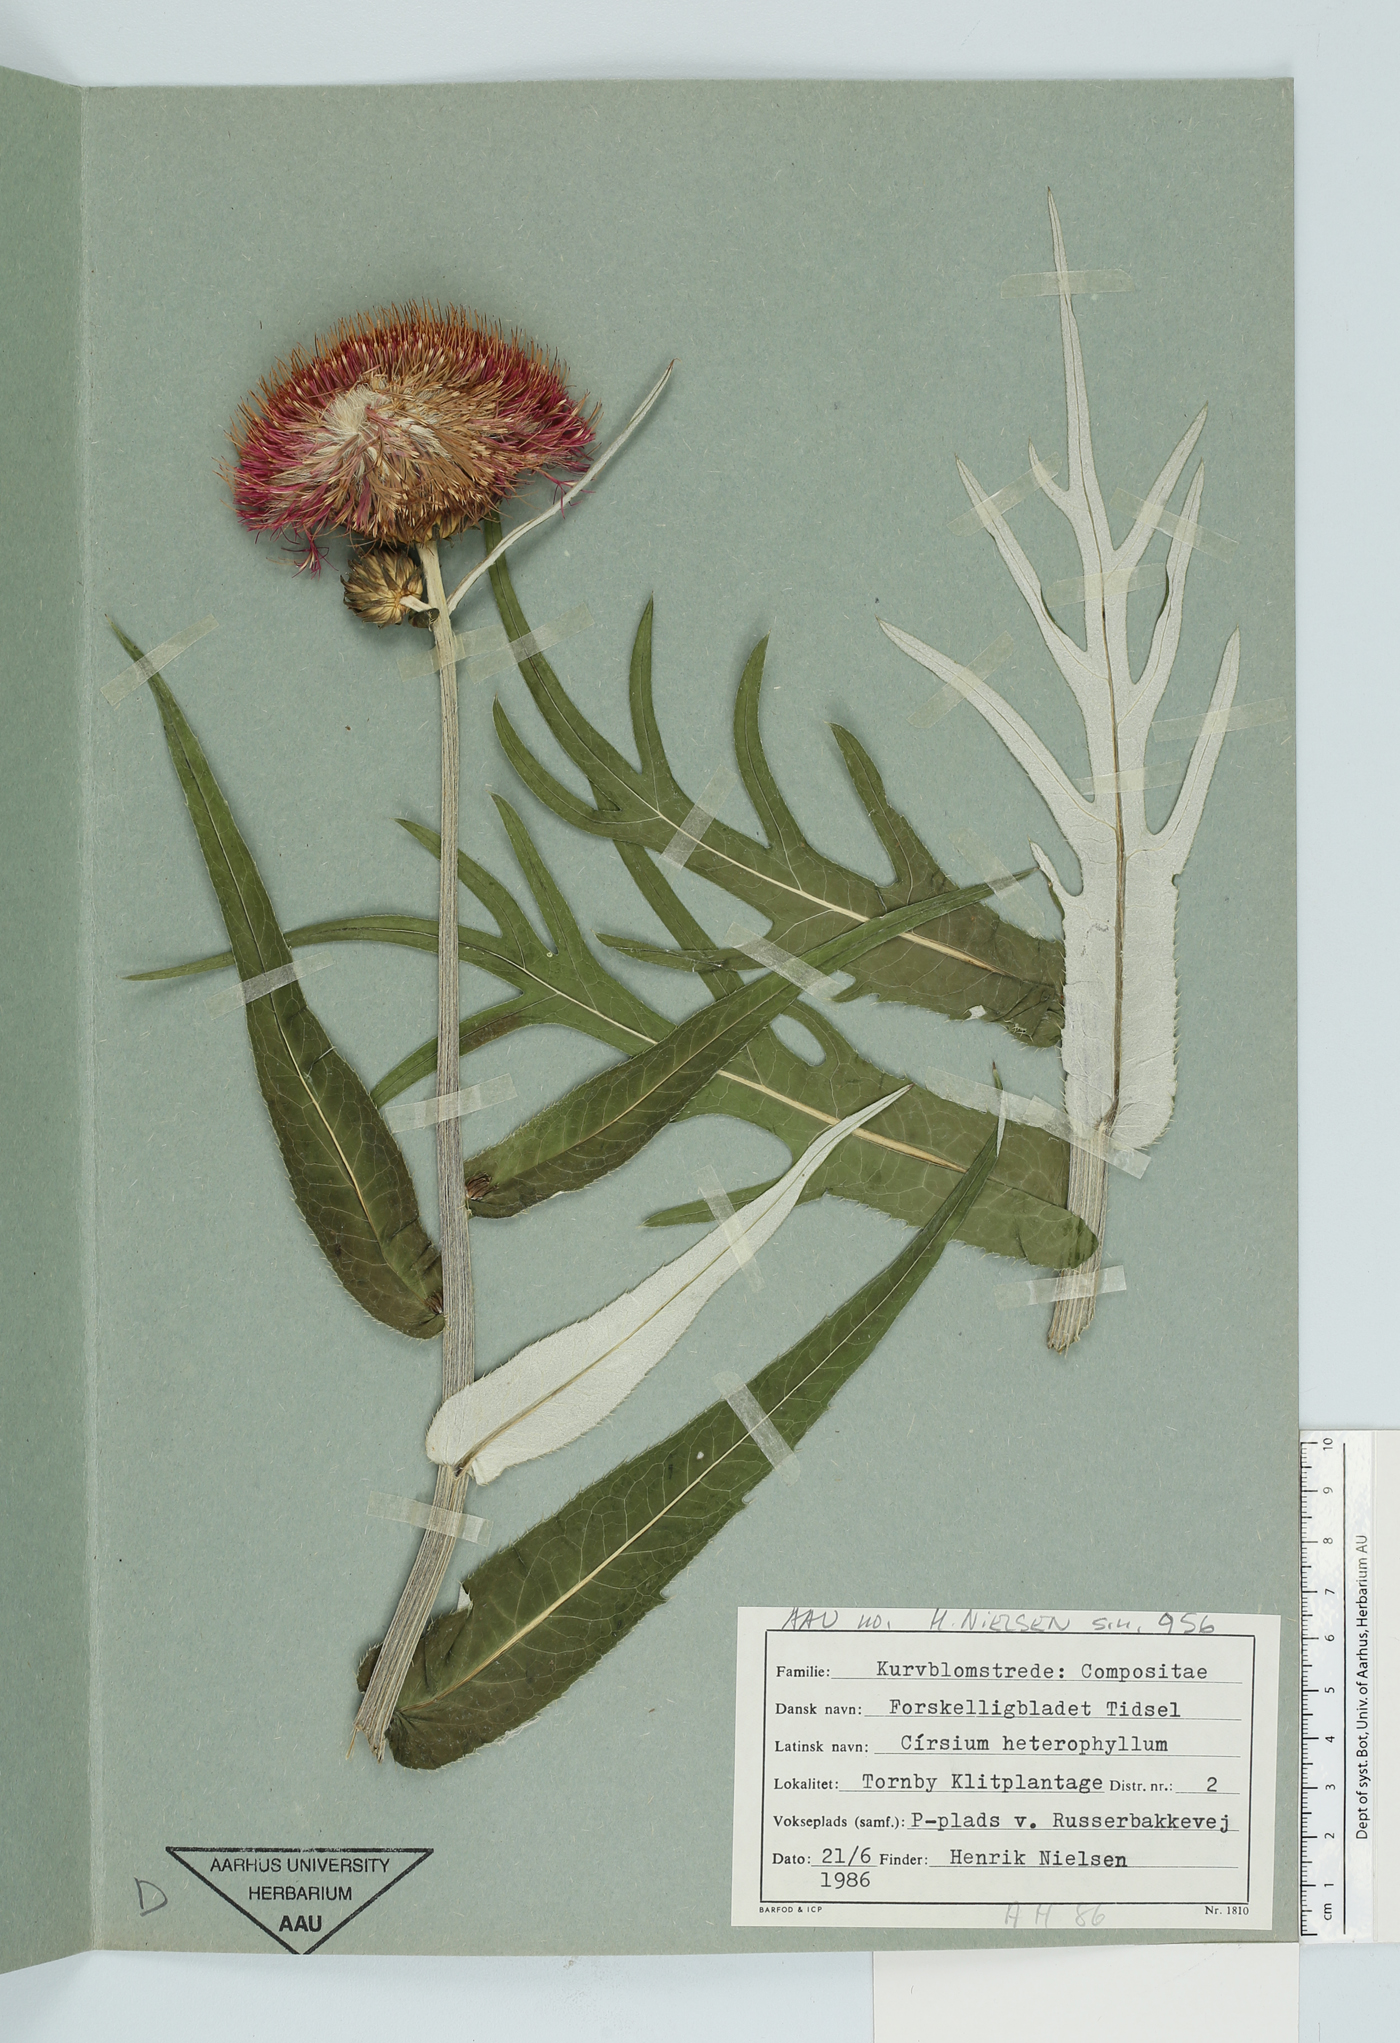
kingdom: Plantae
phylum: Tracheophyta
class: Magnoliopsida
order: Asterales
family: Asteraceae
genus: Cirsium
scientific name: Cirsium helenioides
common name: Melancholy thistle
